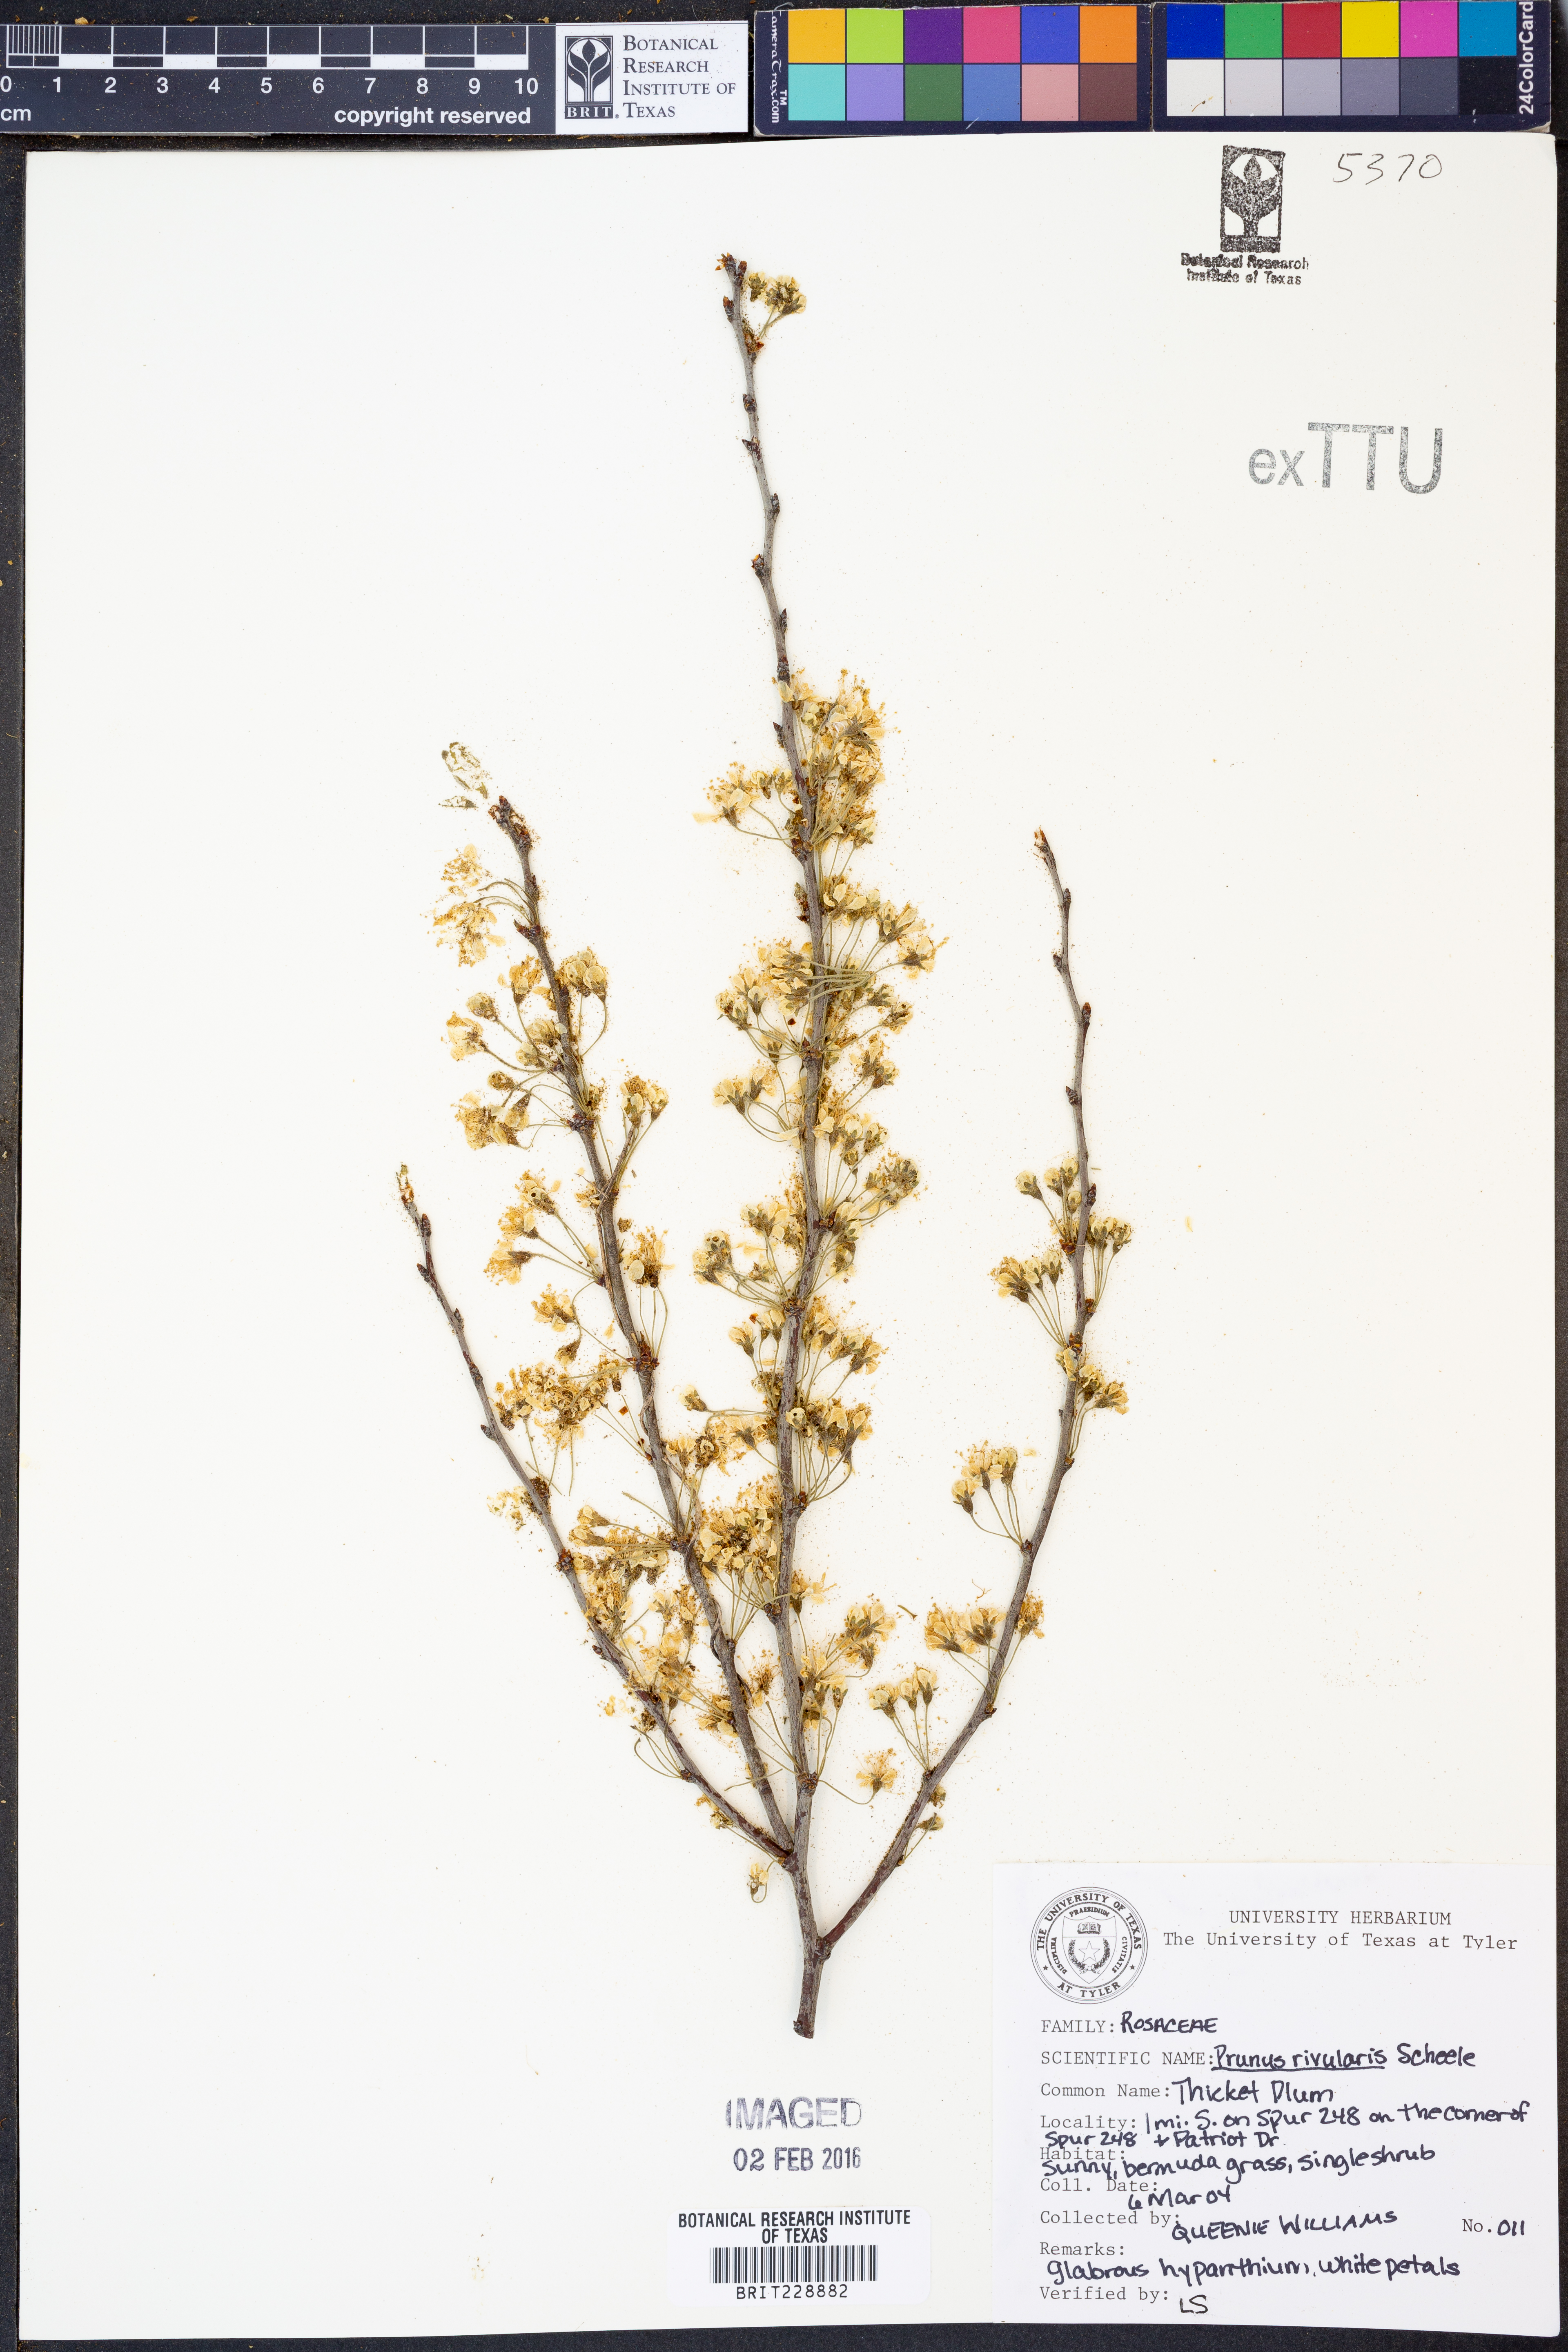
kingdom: Plantae
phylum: Tracheophyta
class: Magnoliopsida
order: Rosales
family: Rosaceae
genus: Prunus
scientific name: Prunus rivularis
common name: Creek plum
